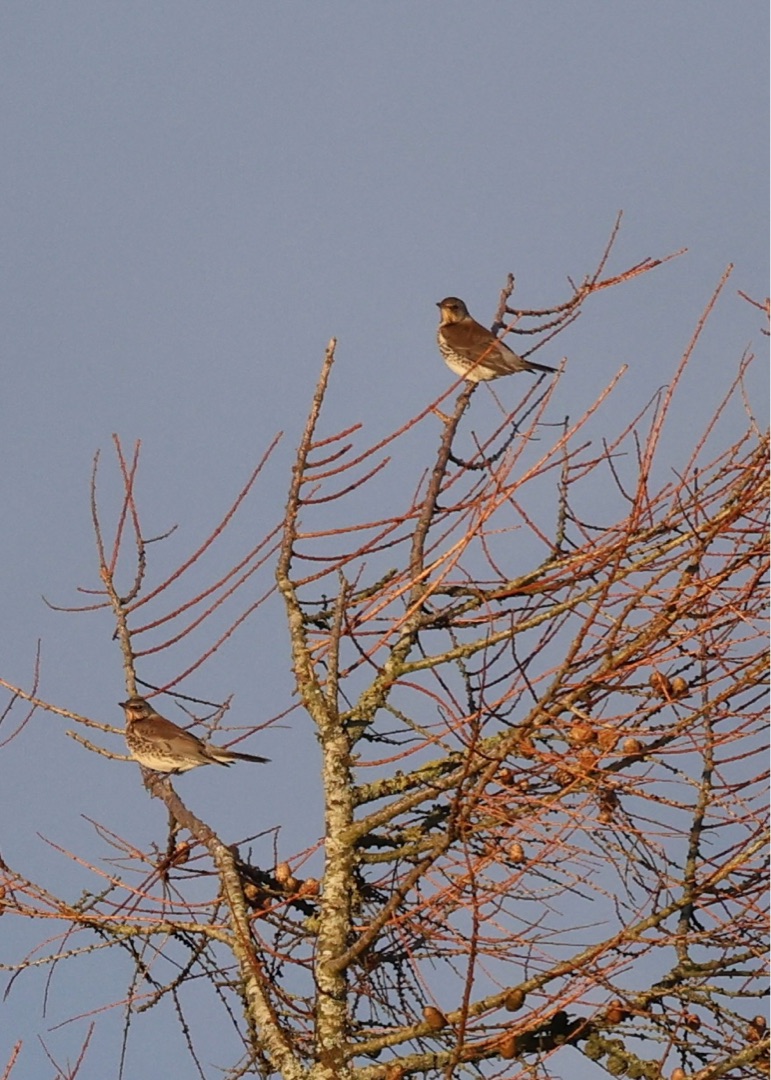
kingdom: Animalia
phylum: Chordata
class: Aves
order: Passeriformes
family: Turdidae
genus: Turdus
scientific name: Turdus pilaris
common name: Sjagger
